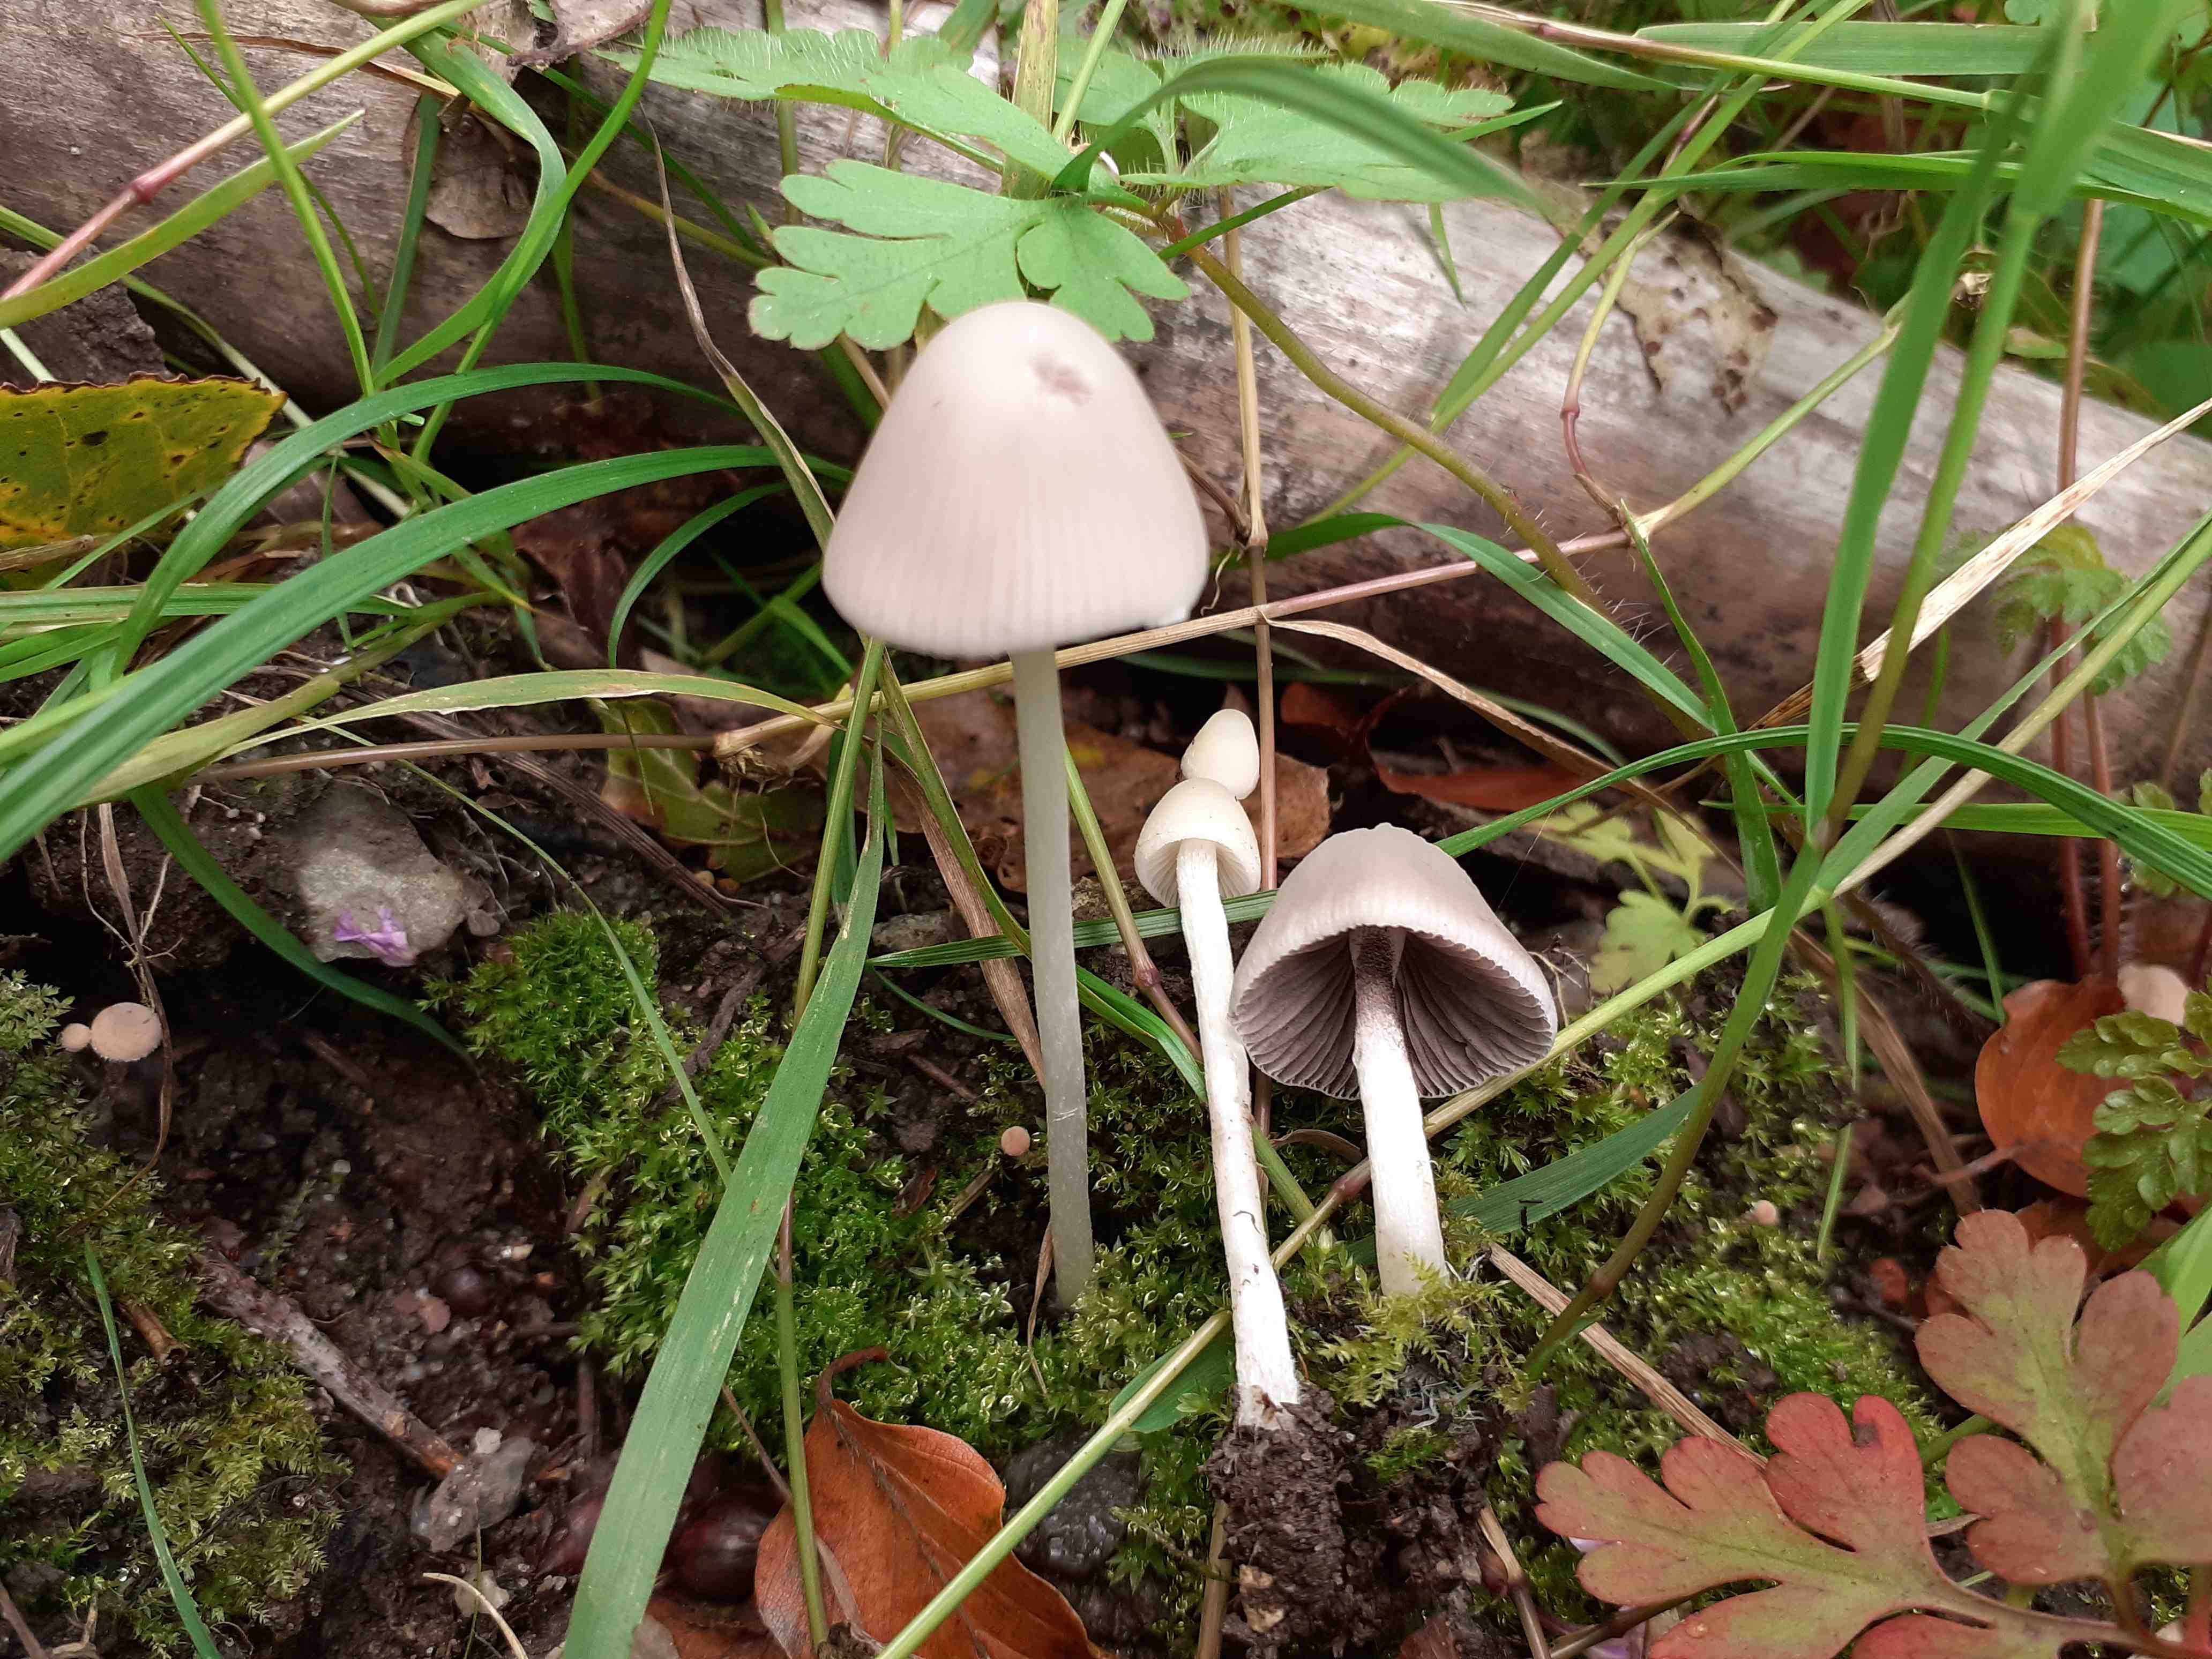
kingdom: Fungi
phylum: Basidiomycota
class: Agaricomycetes
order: Agaricales
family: Psathyrellaceae
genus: Psathyrella
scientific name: Psathyrella pseudogracilis
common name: slank mørkhat
